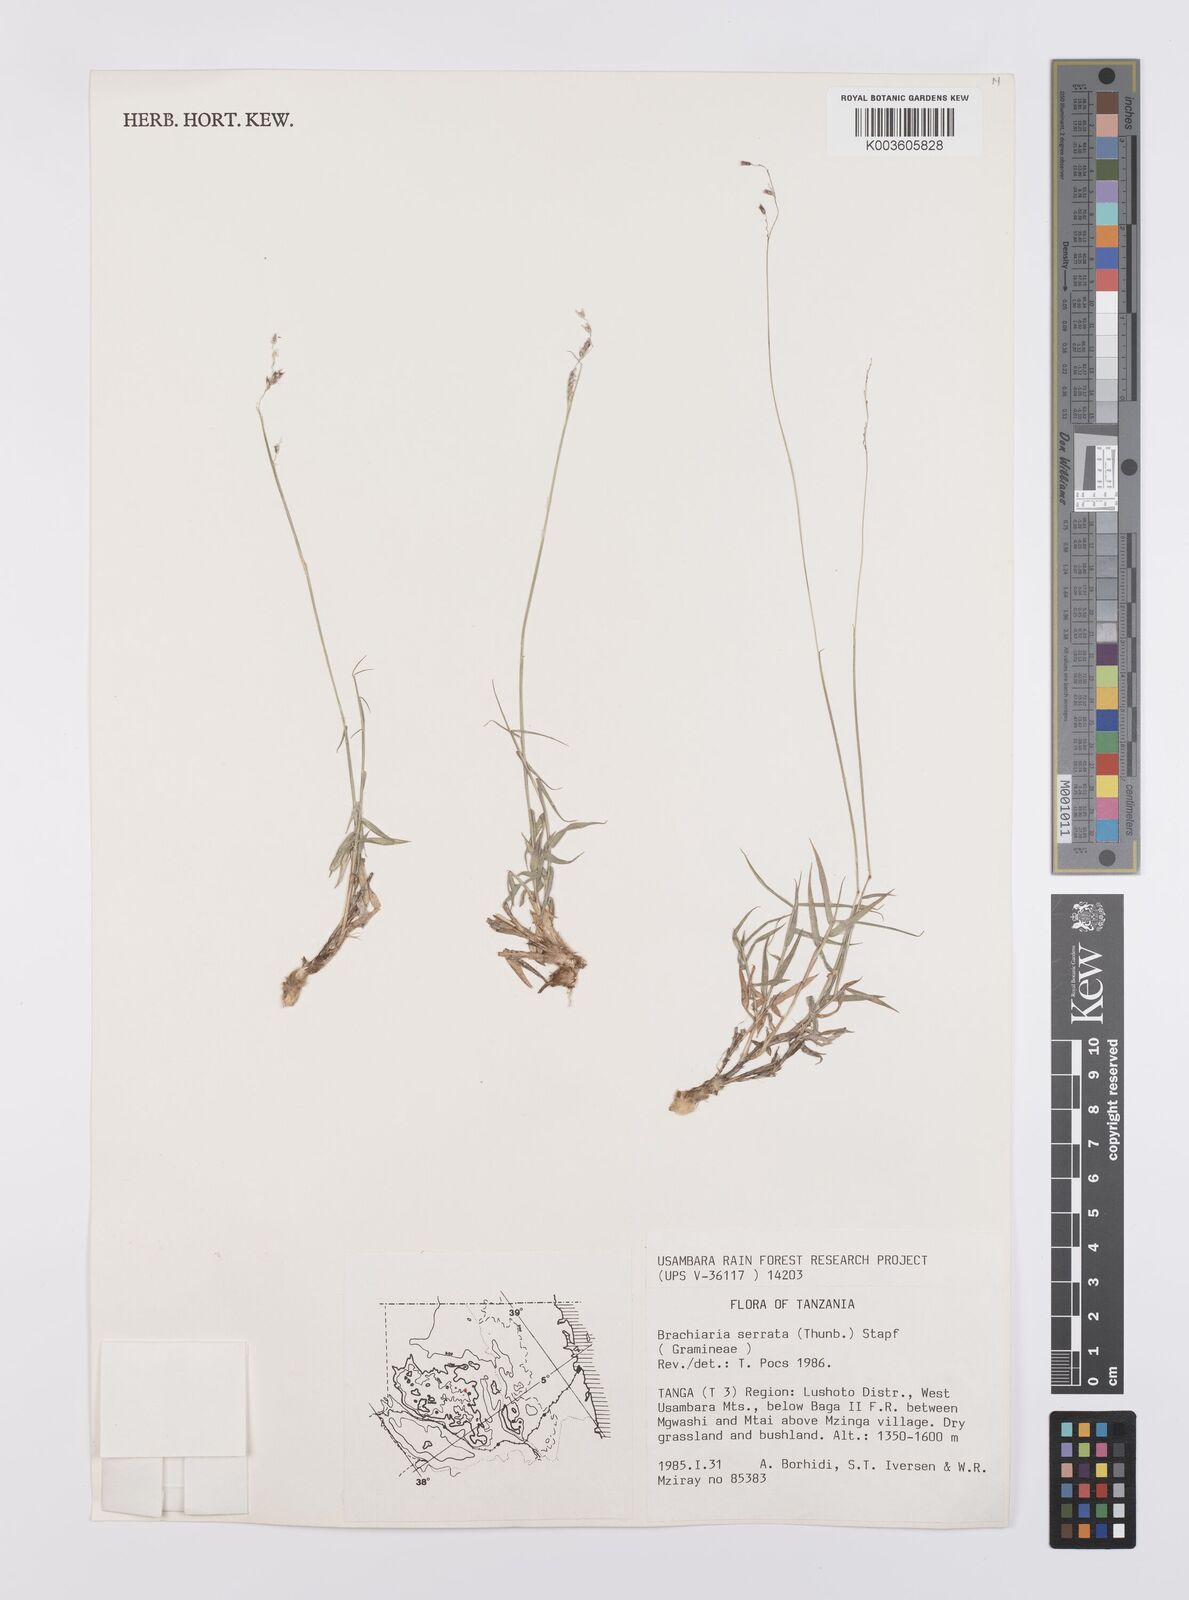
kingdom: Plantae
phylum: Tracheophyta
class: Liliopsida
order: Poales
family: Poaceae
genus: Urochloa
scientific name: Urochloa serrata
